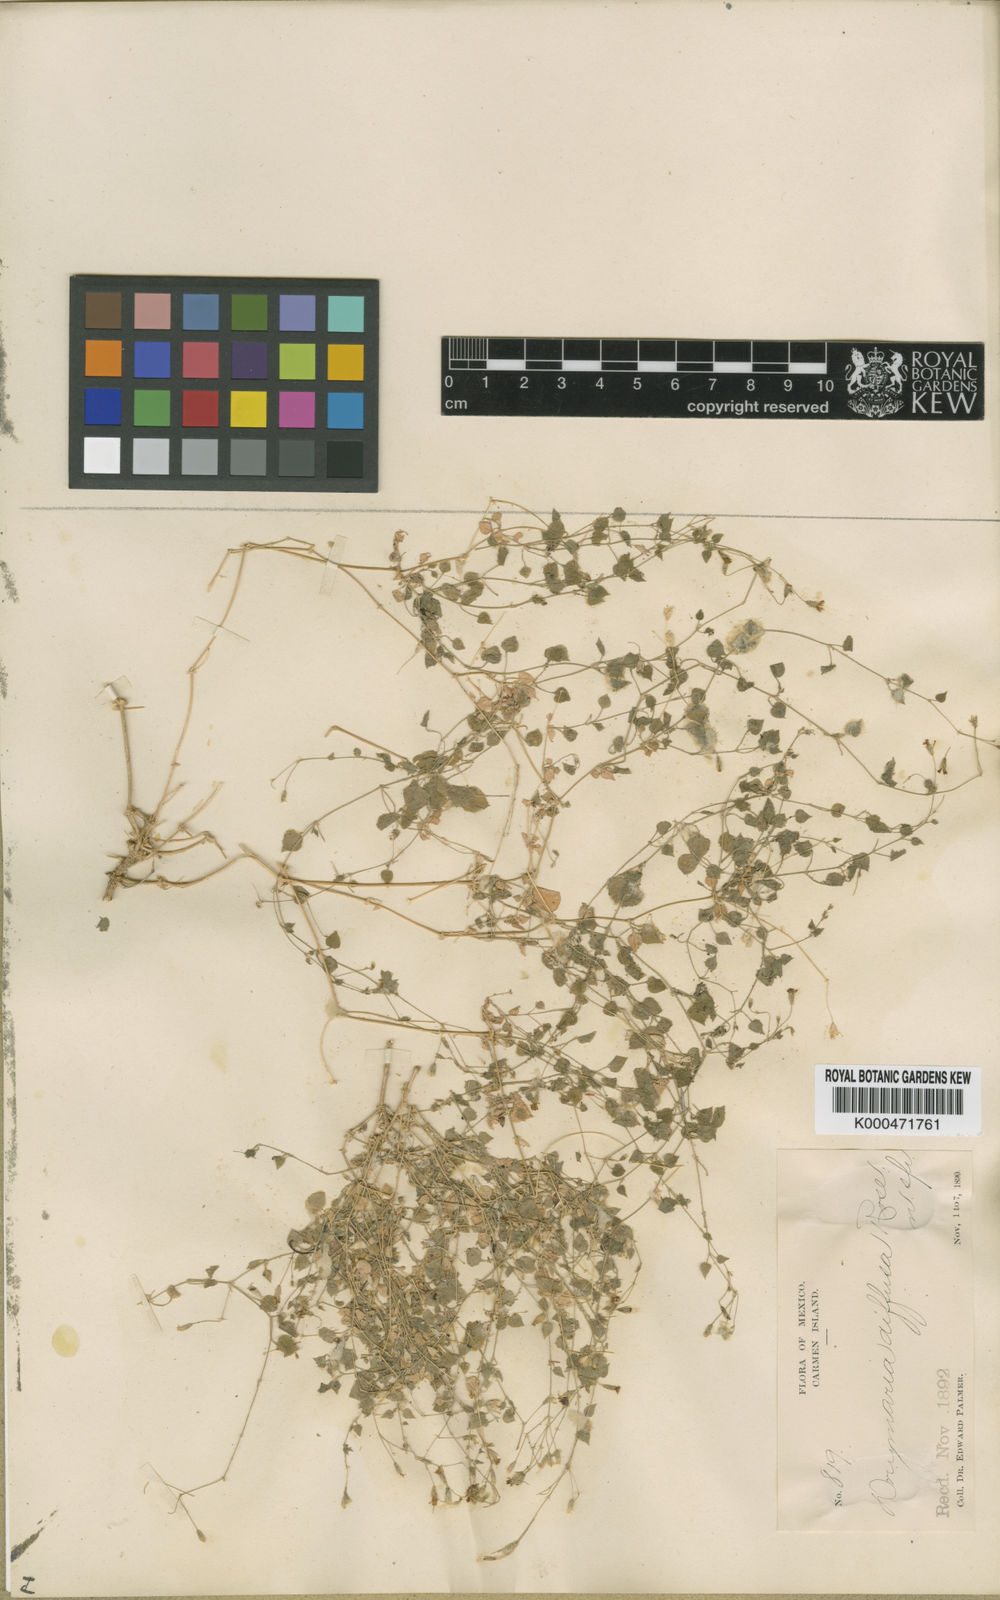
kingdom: Plantae
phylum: Tracheophyta
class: Magnoliopsida
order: Caryophyllales
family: Caryophyllaceae
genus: Drymaria
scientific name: Drymaria debilis
